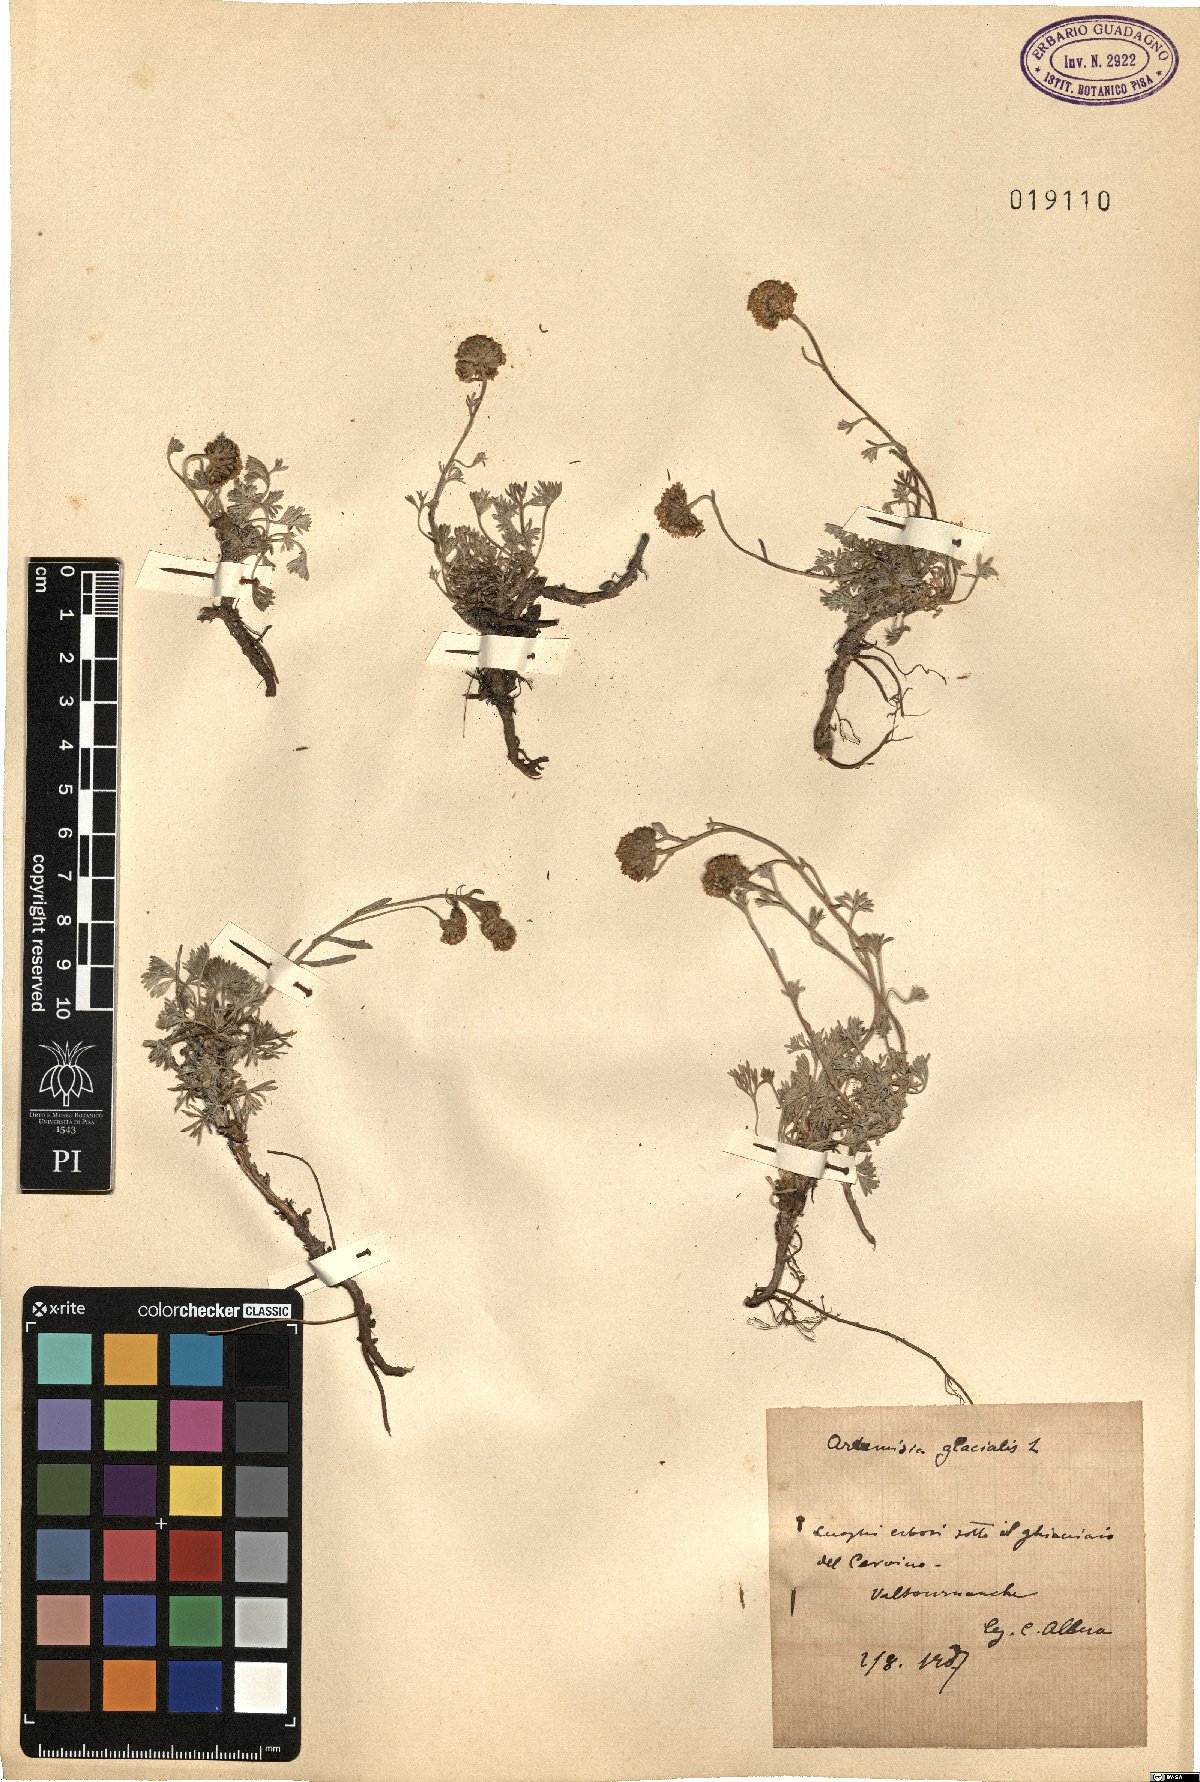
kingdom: Plantae
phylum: Tracheophyta
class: Magnoliopsida
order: Asterales
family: Asteraceae
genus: Artemisia
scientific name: Artemisia glacialis
